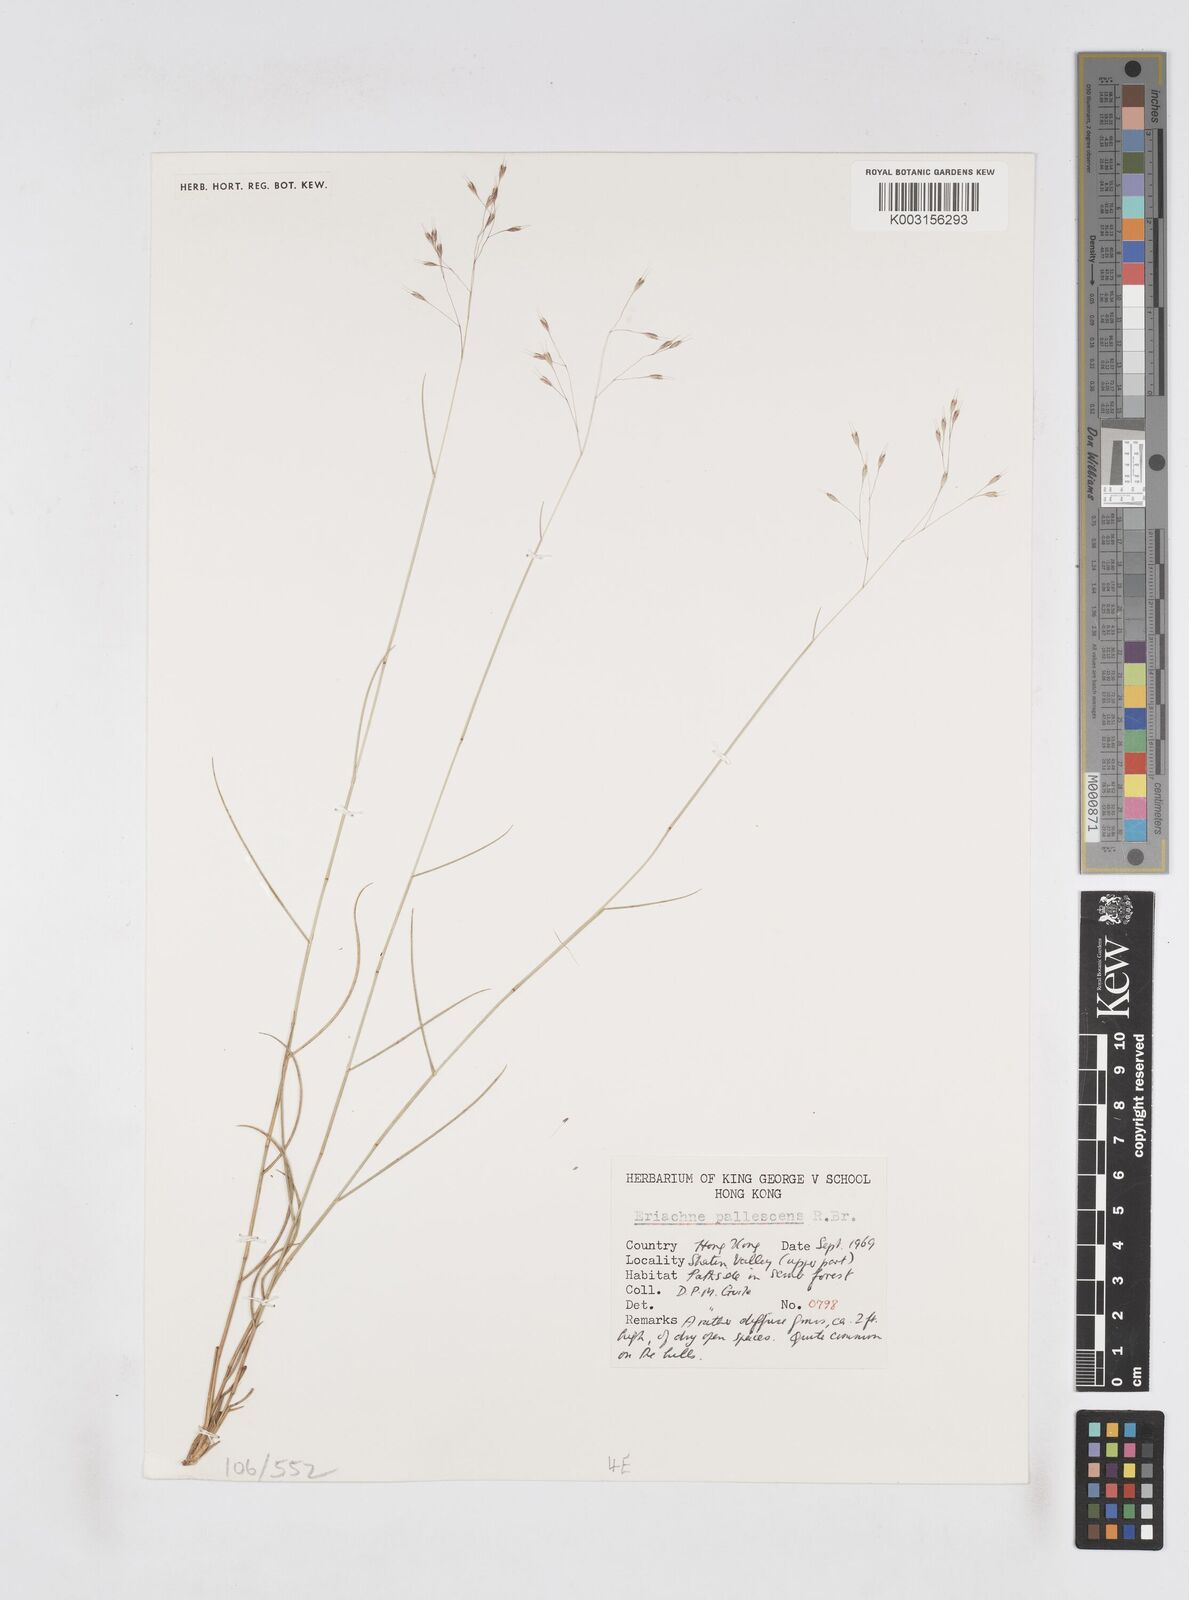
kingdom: Plantae
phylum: Tracheophyta
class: Liliopsida
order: Poales
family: Poaceae
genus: Eriachne
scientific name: Eriachne pallescens
